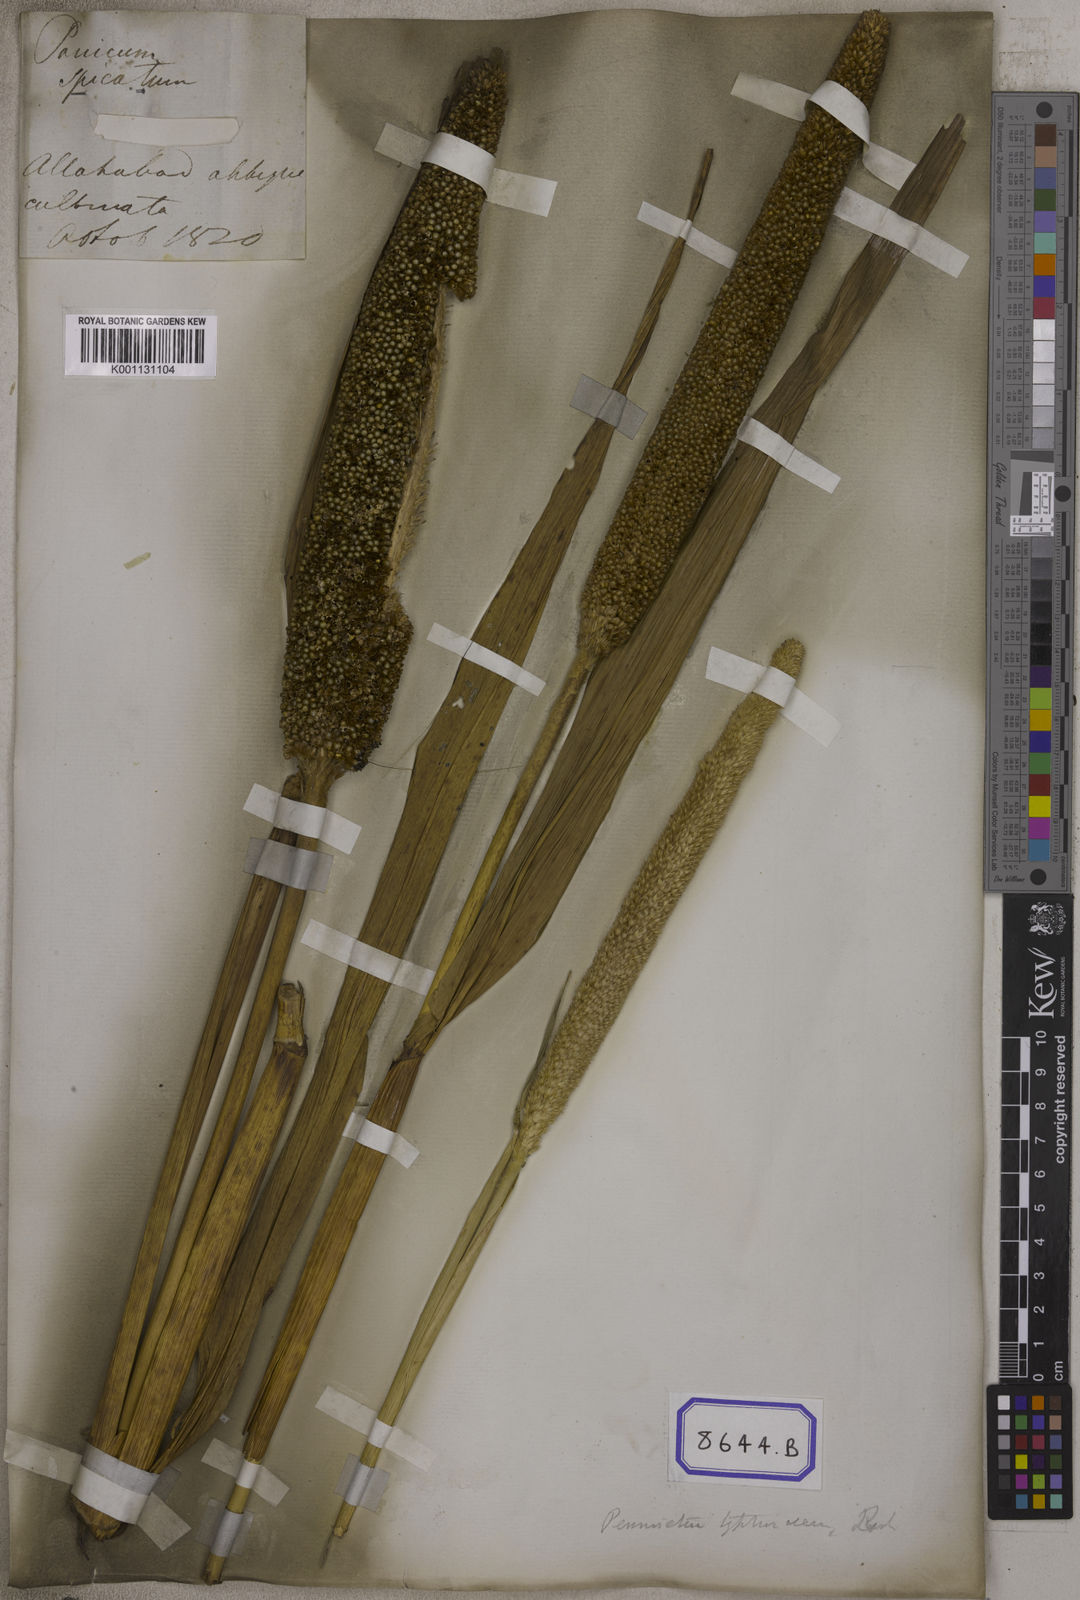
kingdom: Plantae
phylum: Tracheophyta
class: Liliopsida
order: Poales
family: Poaceae
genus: Cenchrus
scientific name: Cenchrus americanus
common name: Pearl millet
